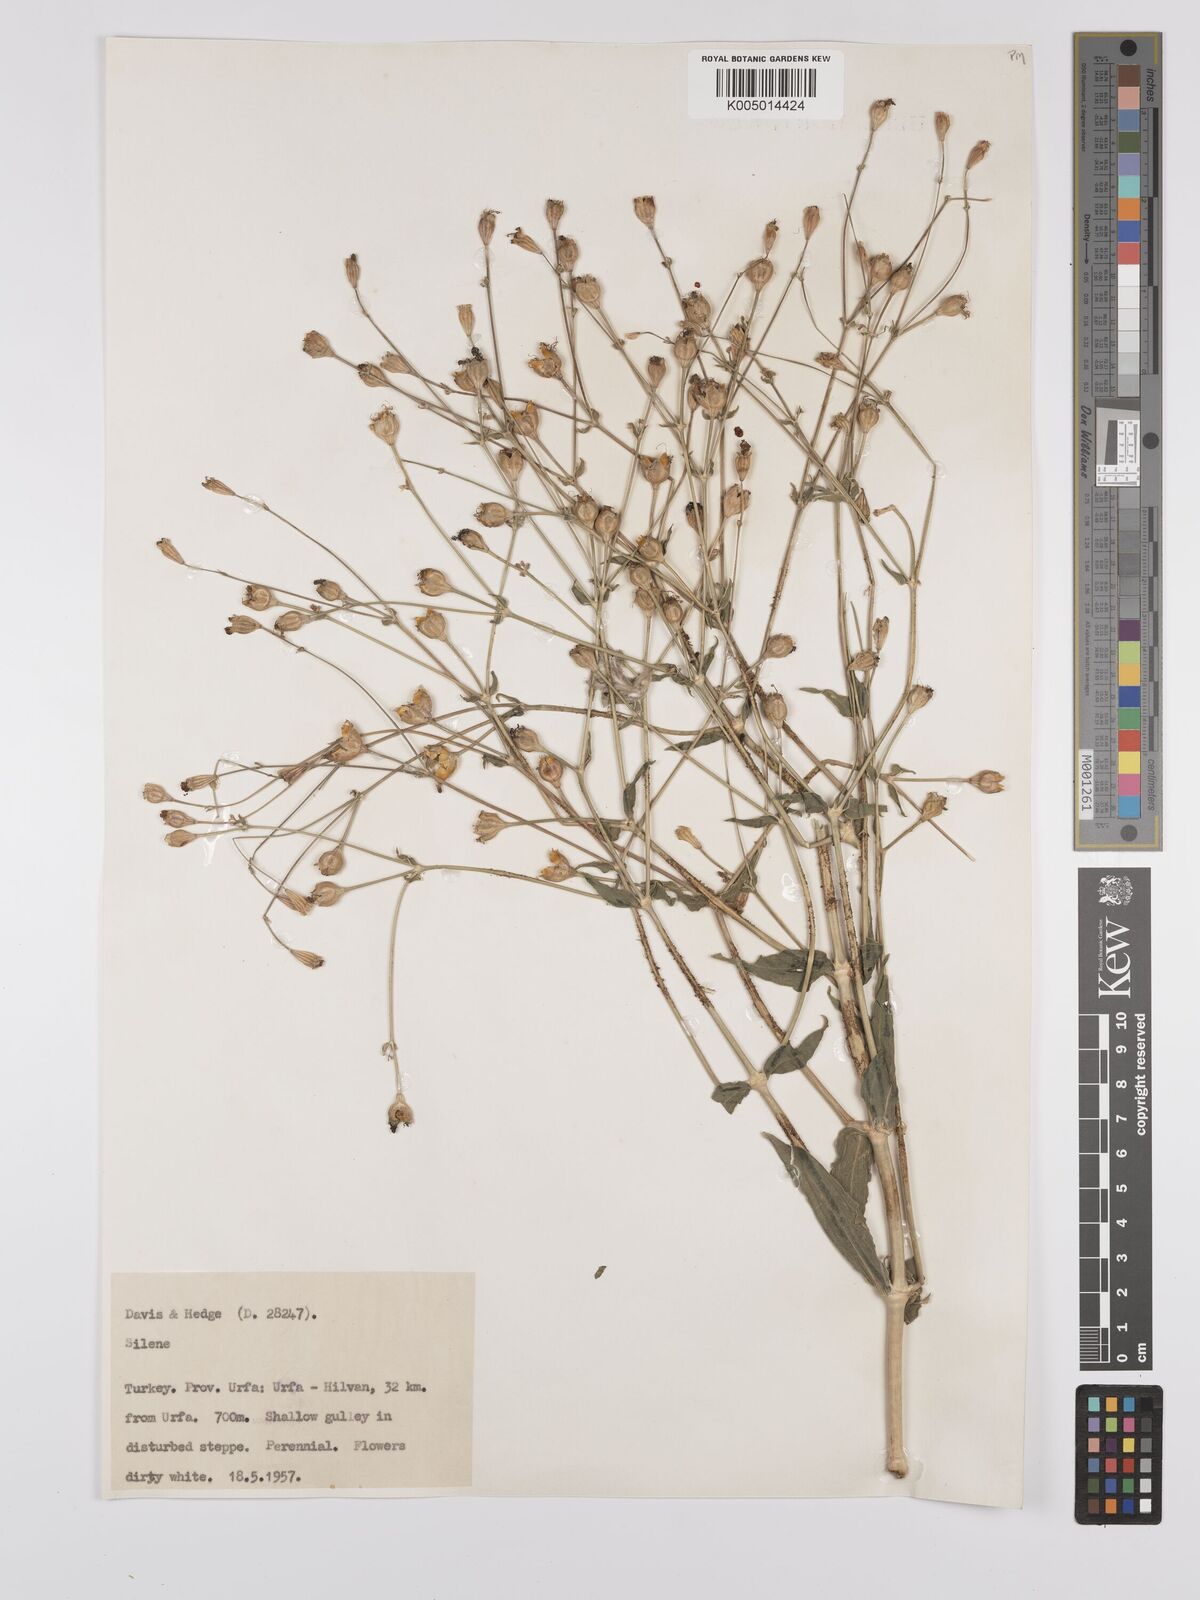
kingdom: Plantae
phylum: Tracheophyta
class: Magnoliopsida
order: Caryophyllales
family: Caryophyllaceae
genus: Silene
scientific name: Silene
